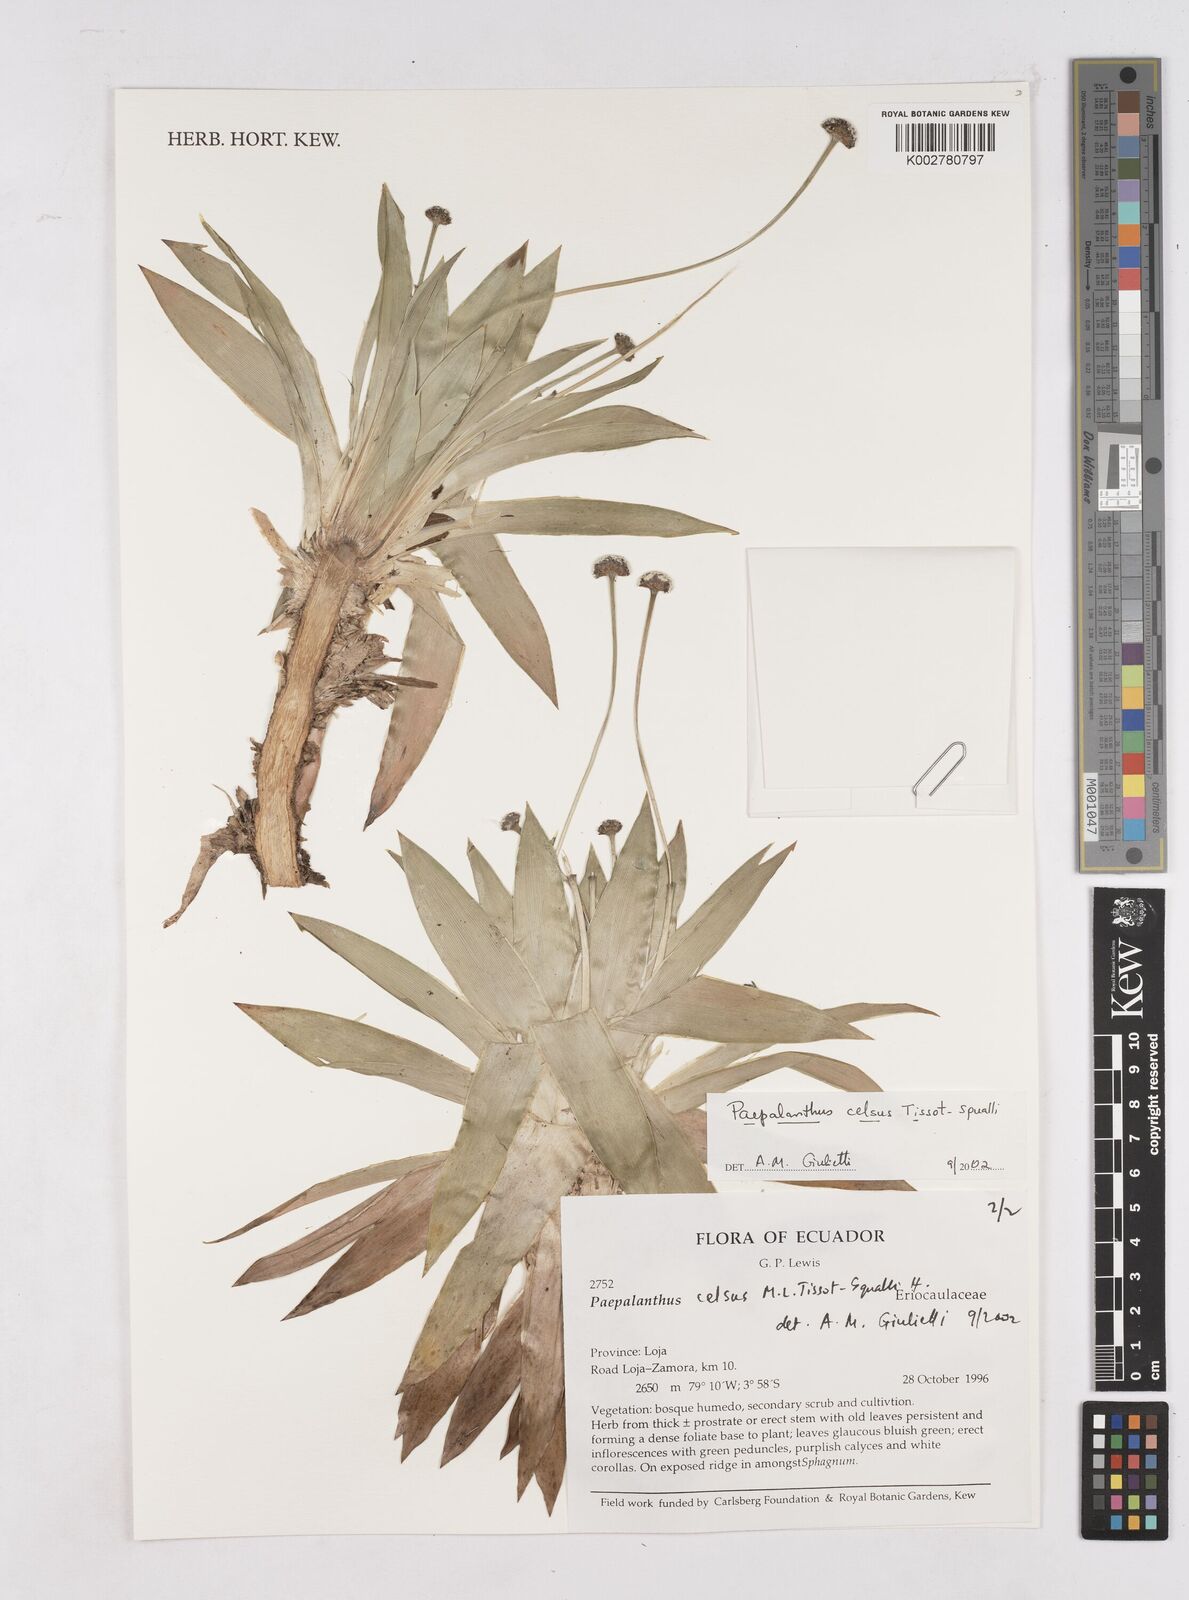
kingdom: Plantae
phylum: Tracheophyta
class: Liliopsida
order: Poales
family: Eriocaulaceae
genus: Paepalanthus
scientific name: Paepalanthus celsus
